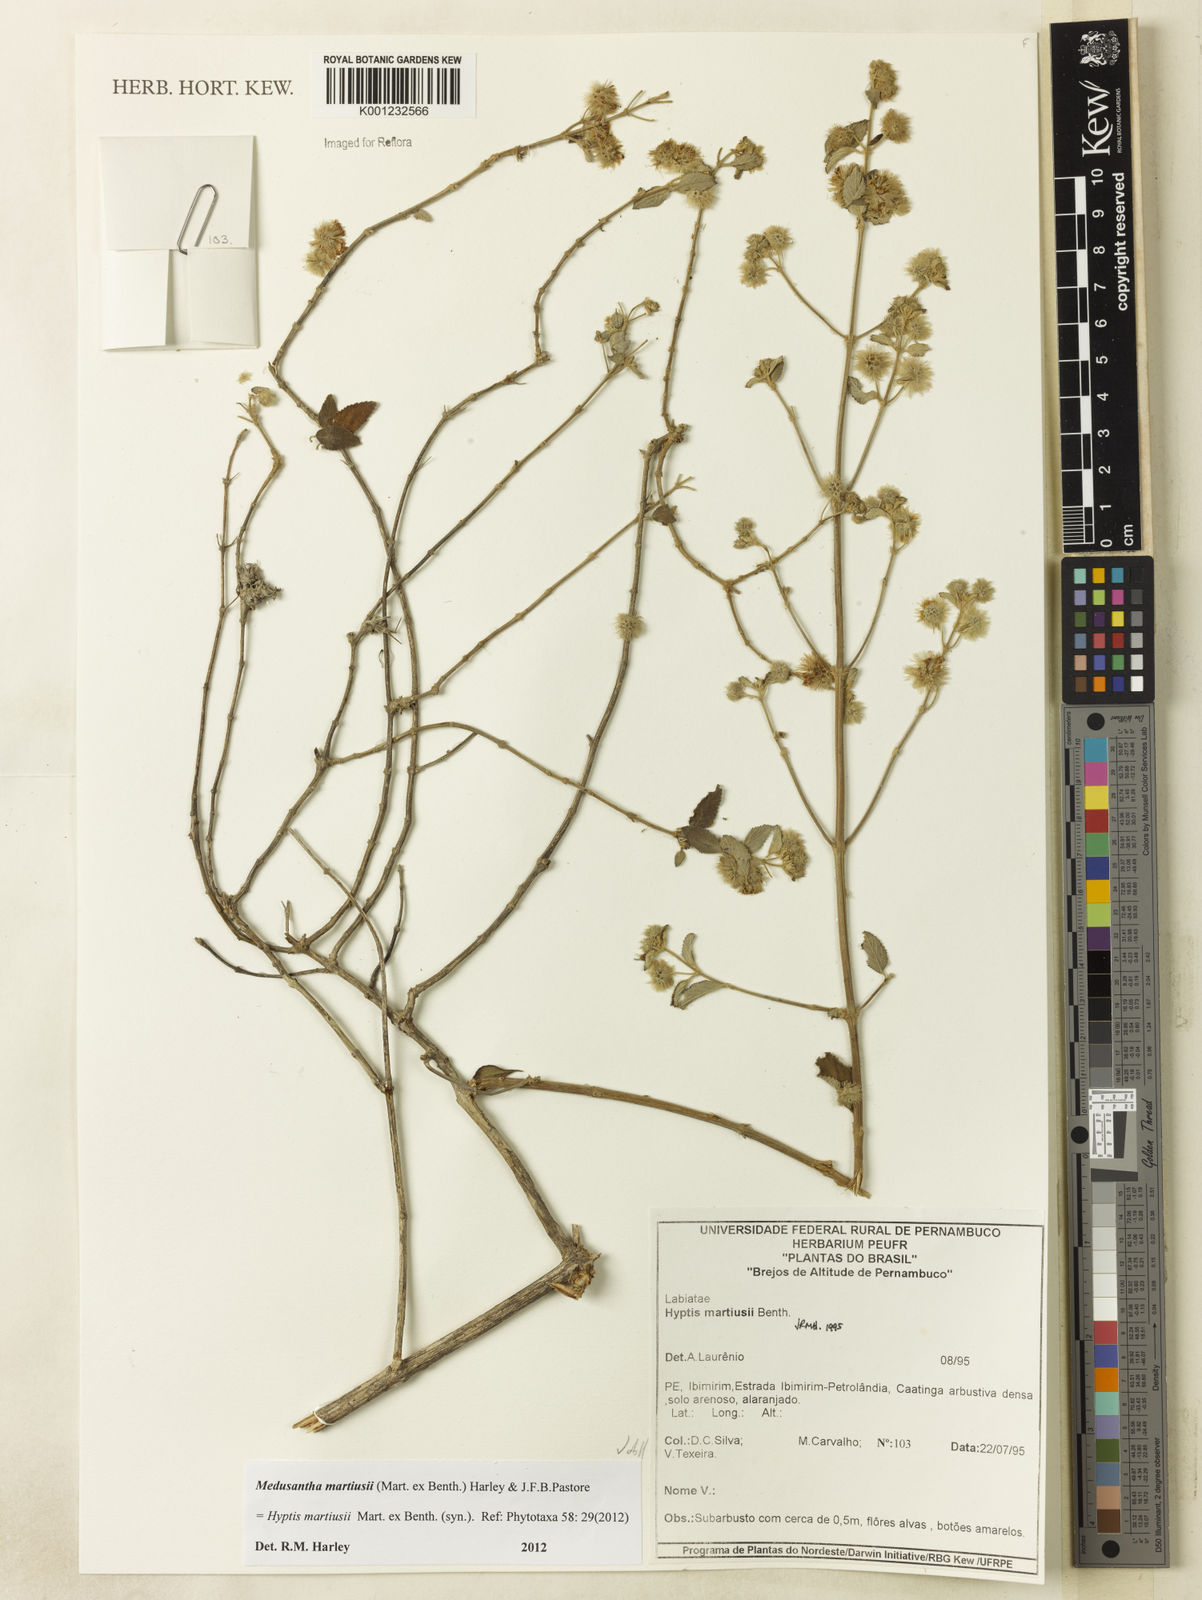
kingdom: Plantae
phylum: Tracheophyta
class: Magnoliopsida
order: Lamiales
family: Lamiaceae
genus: Medusantha
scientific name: Medusantha martiusii
